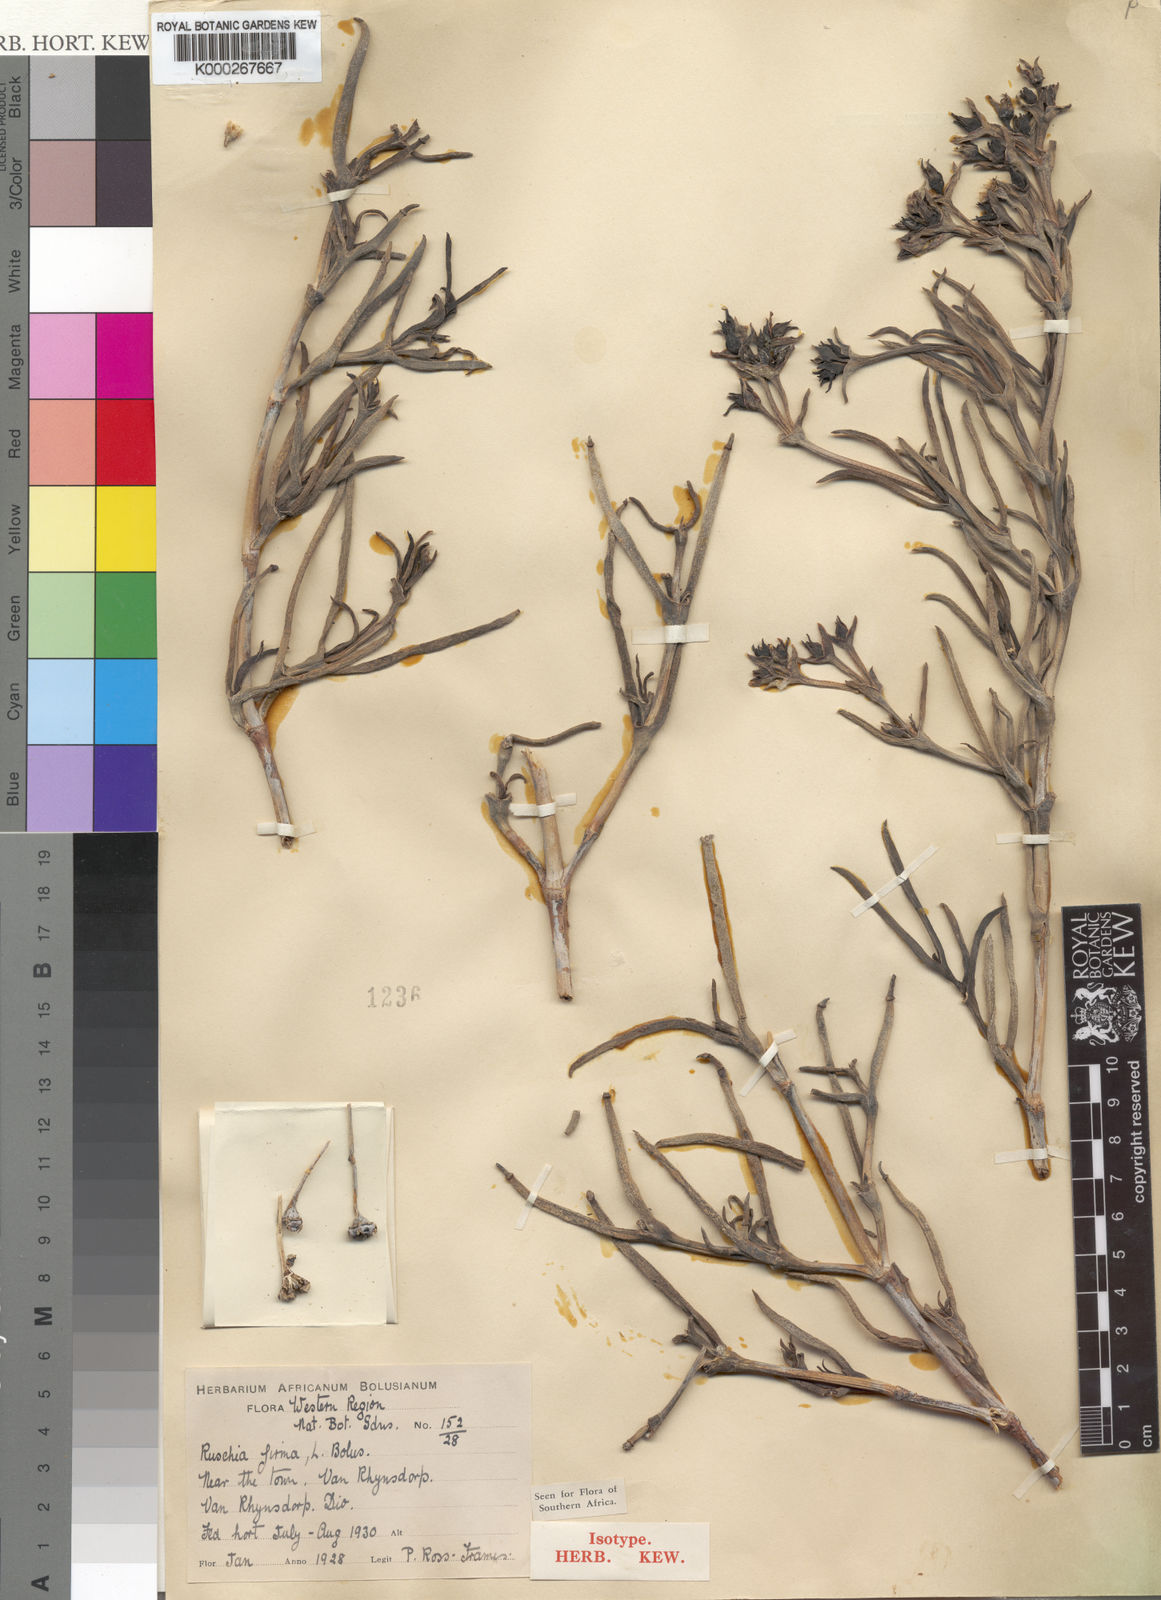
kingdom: Plantae
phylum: Tracheophyta
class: Magnoliopsida
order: Caryophyllales
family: Aizoaceae
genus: Ruschia
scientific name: Ruschia firma
